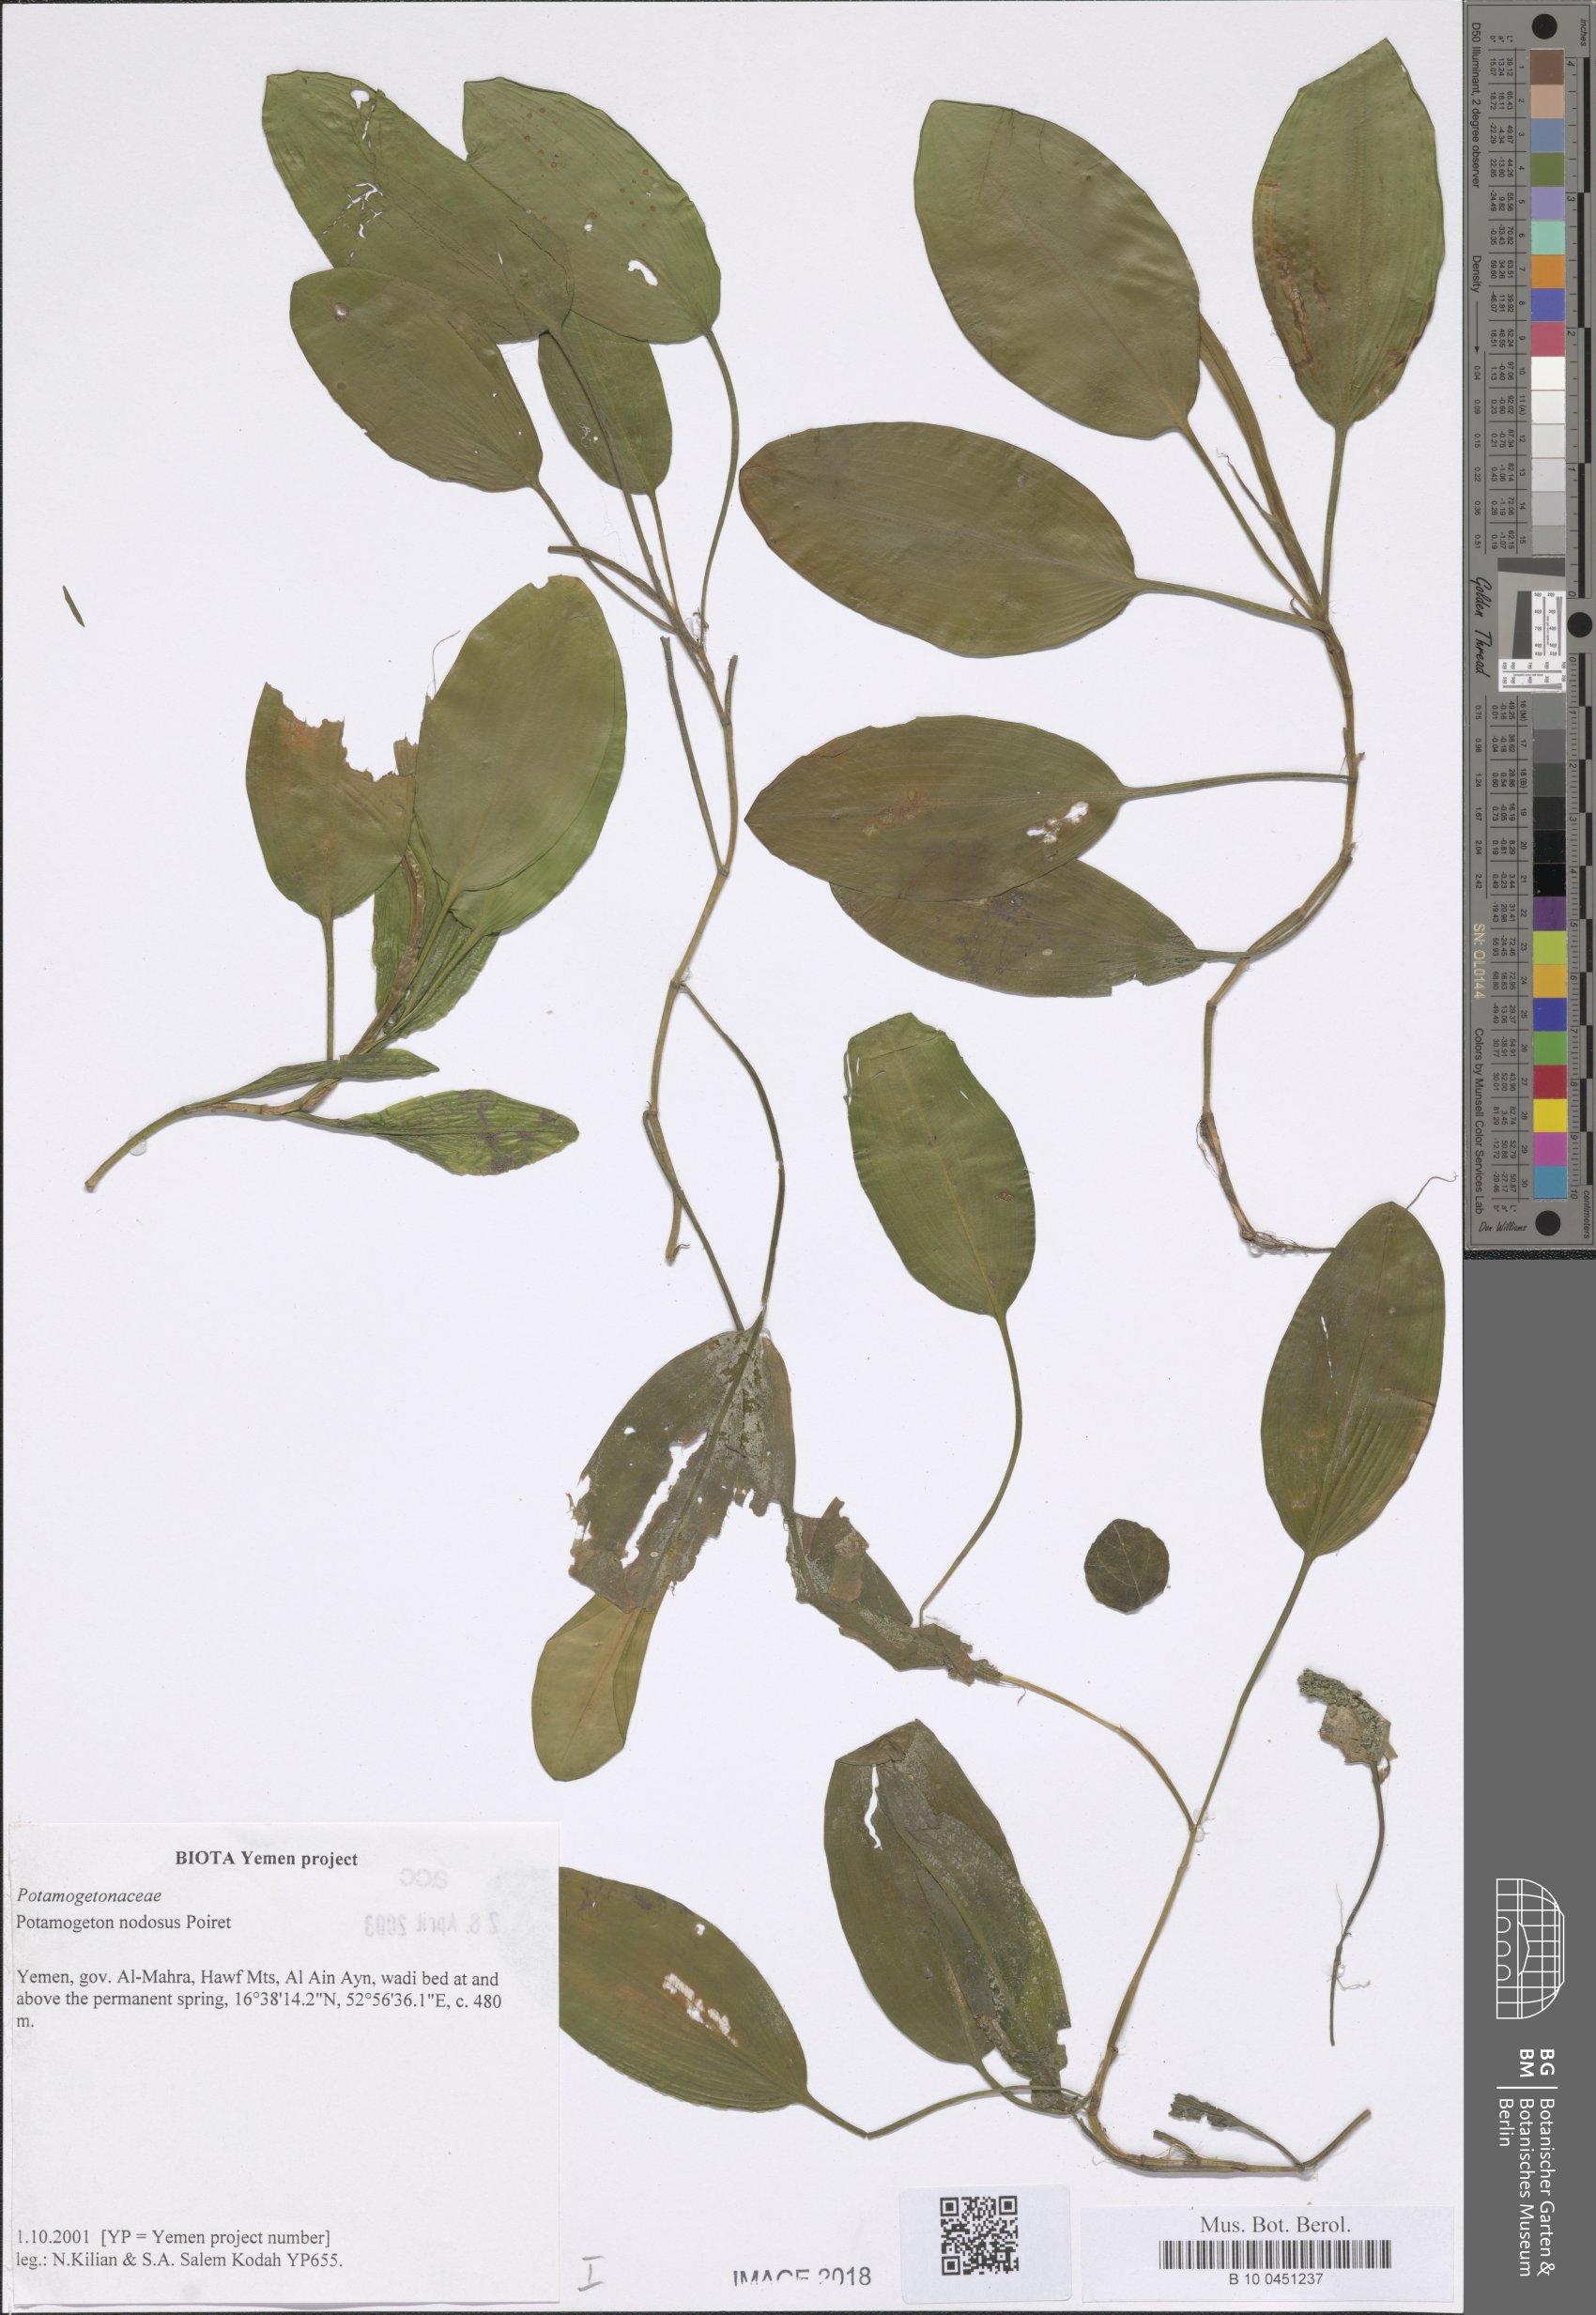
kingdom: Plantae
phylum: Tracheophyta
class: Liliopsida
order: Alismatales
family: Potamogetonaceae
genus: Potamogeton
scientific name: Potamogeton nodosus
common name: Loddon pondweed
